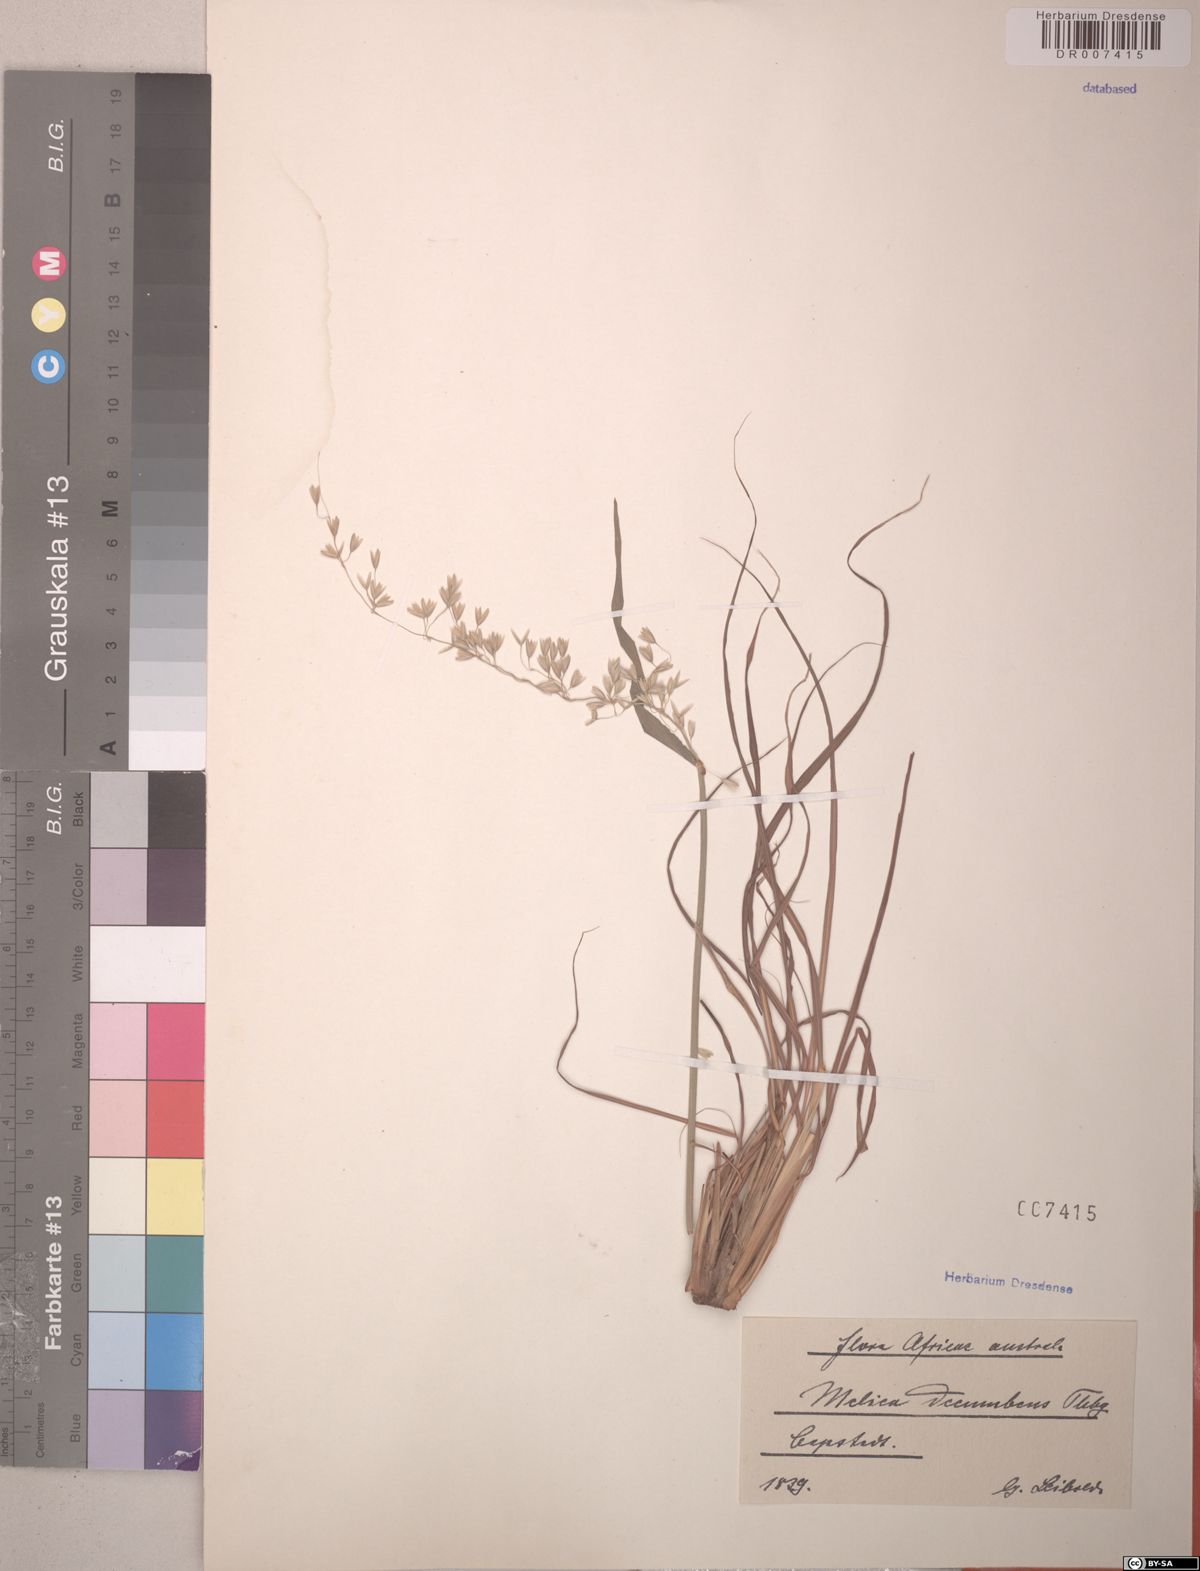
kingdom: Plantae
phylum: Tracheophyta
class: Liliopsida
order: Poales
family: Poaceae
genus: Melica
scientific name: Melica dendroides
